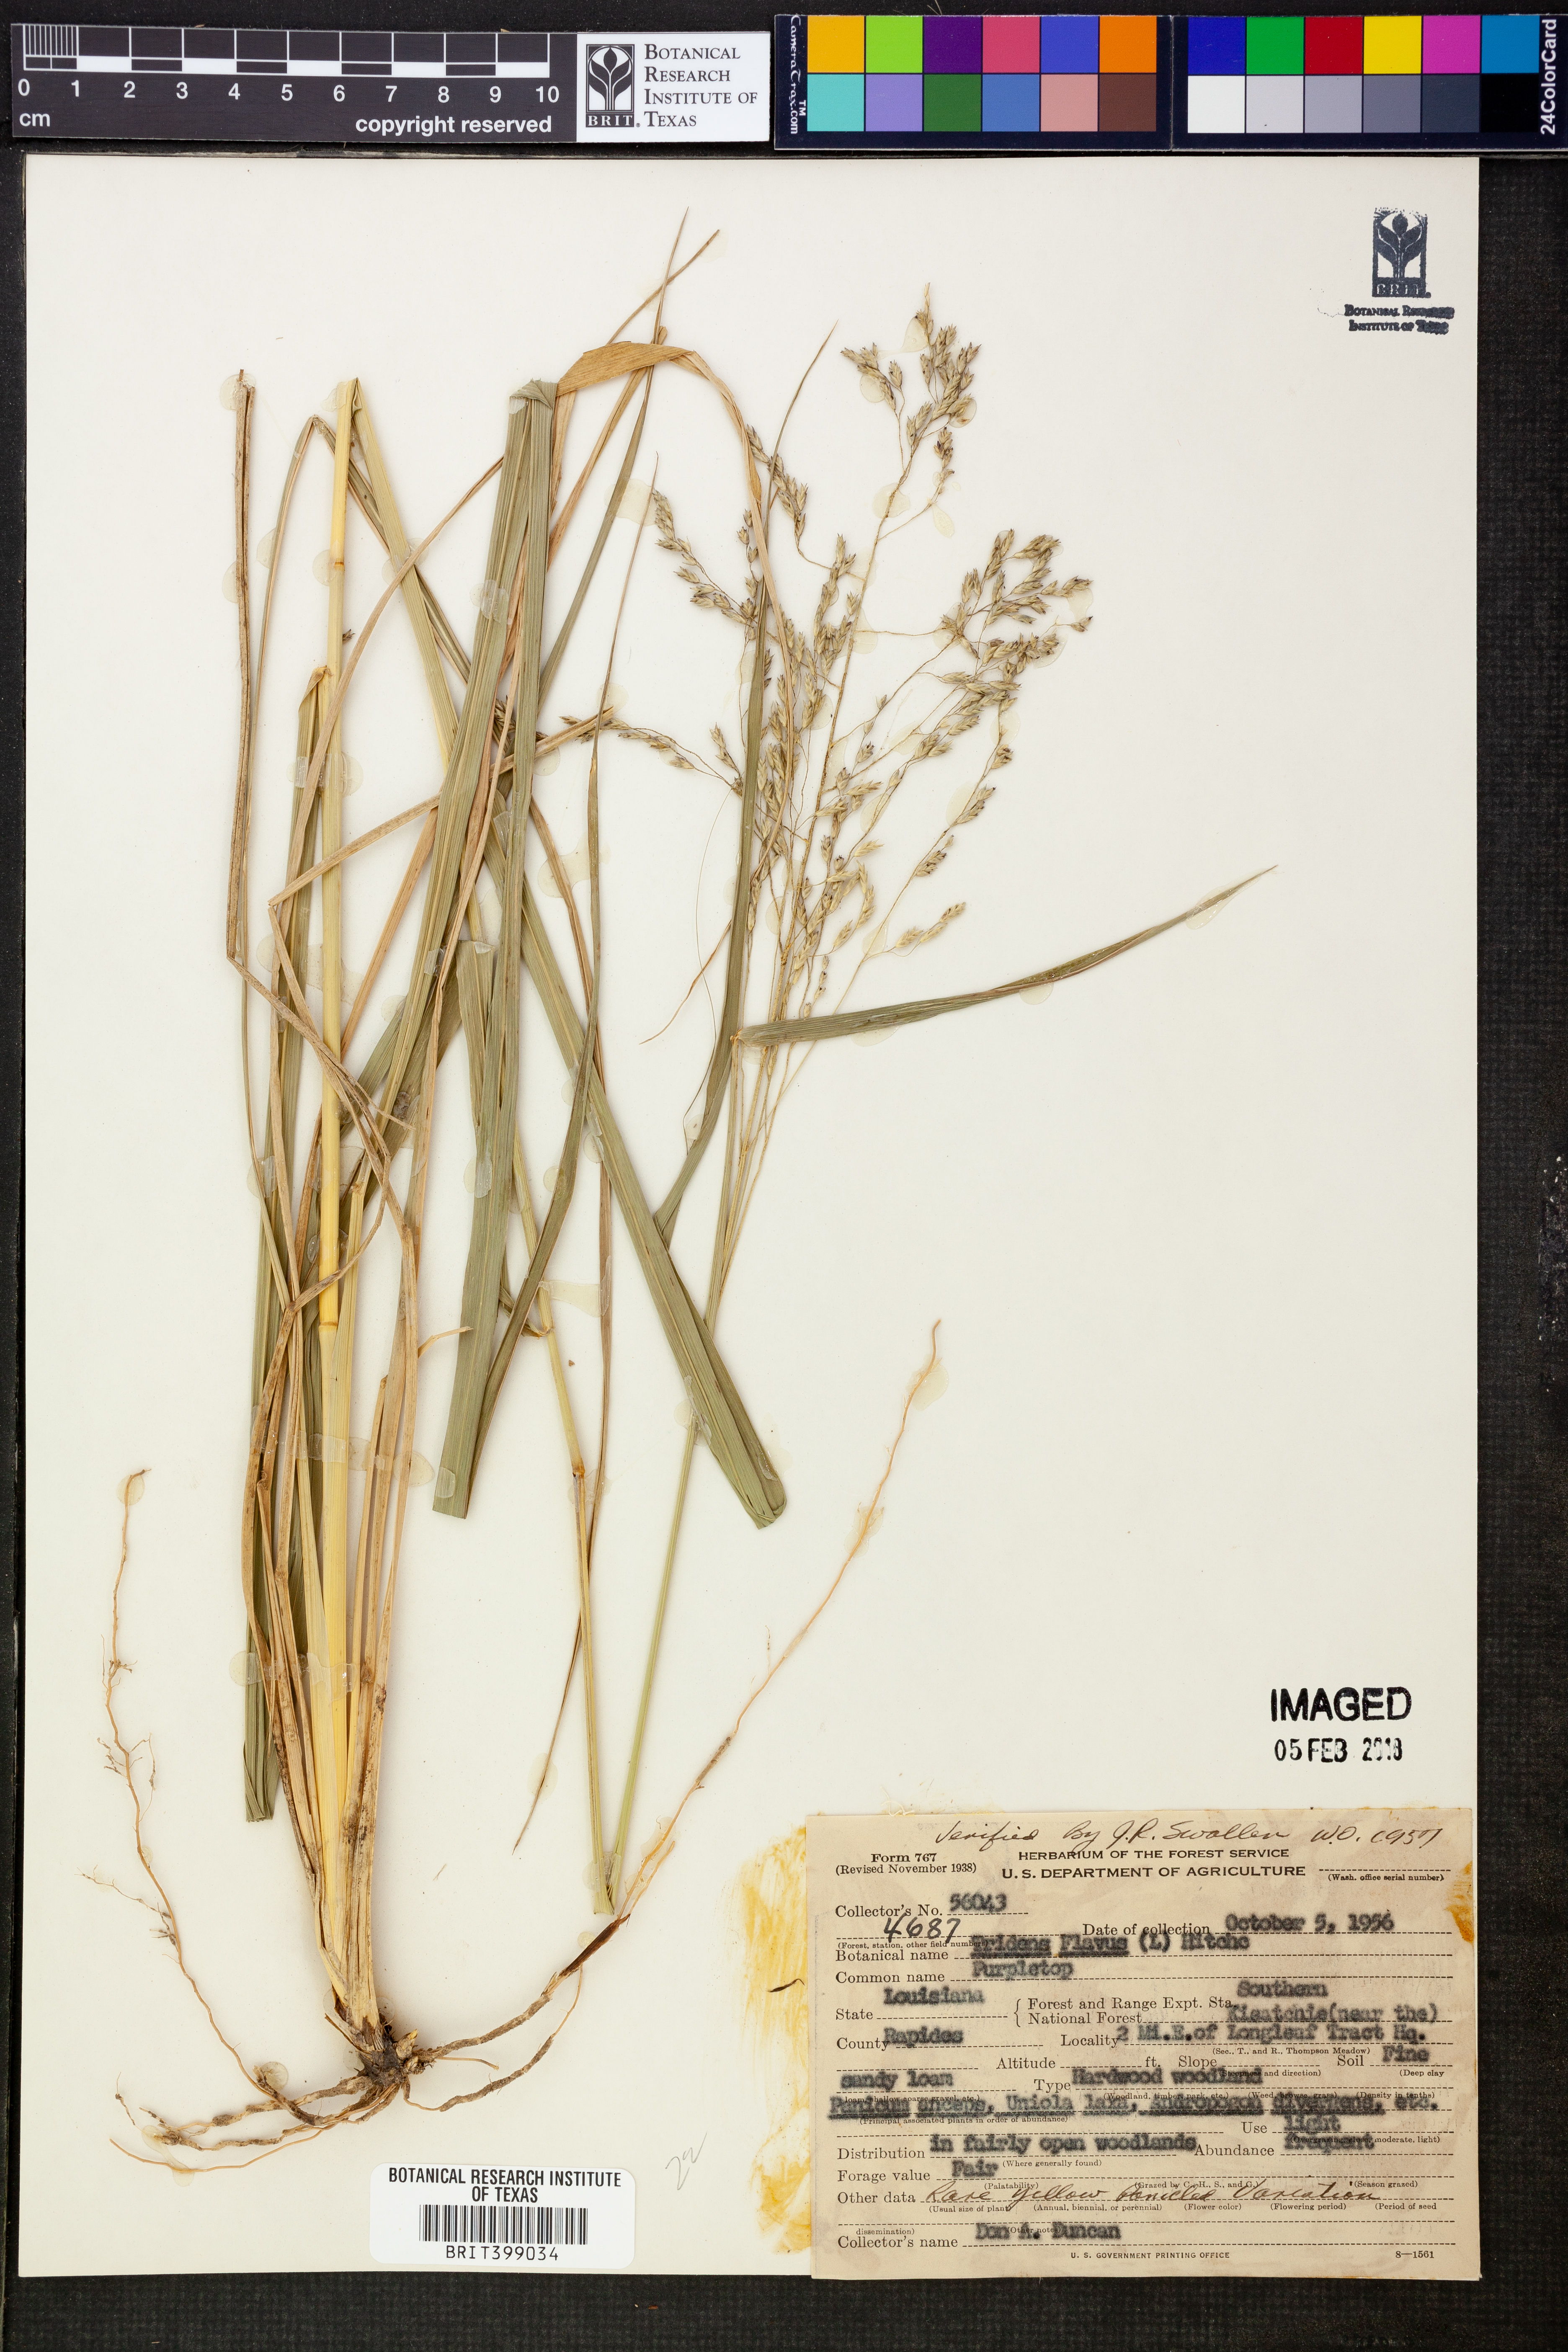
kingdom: Plantae
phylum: Tracheophyta
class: Liliopsida
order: Poales
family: Poaceae
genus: Tridens
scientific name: Tridens flavus
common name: Purpletop
